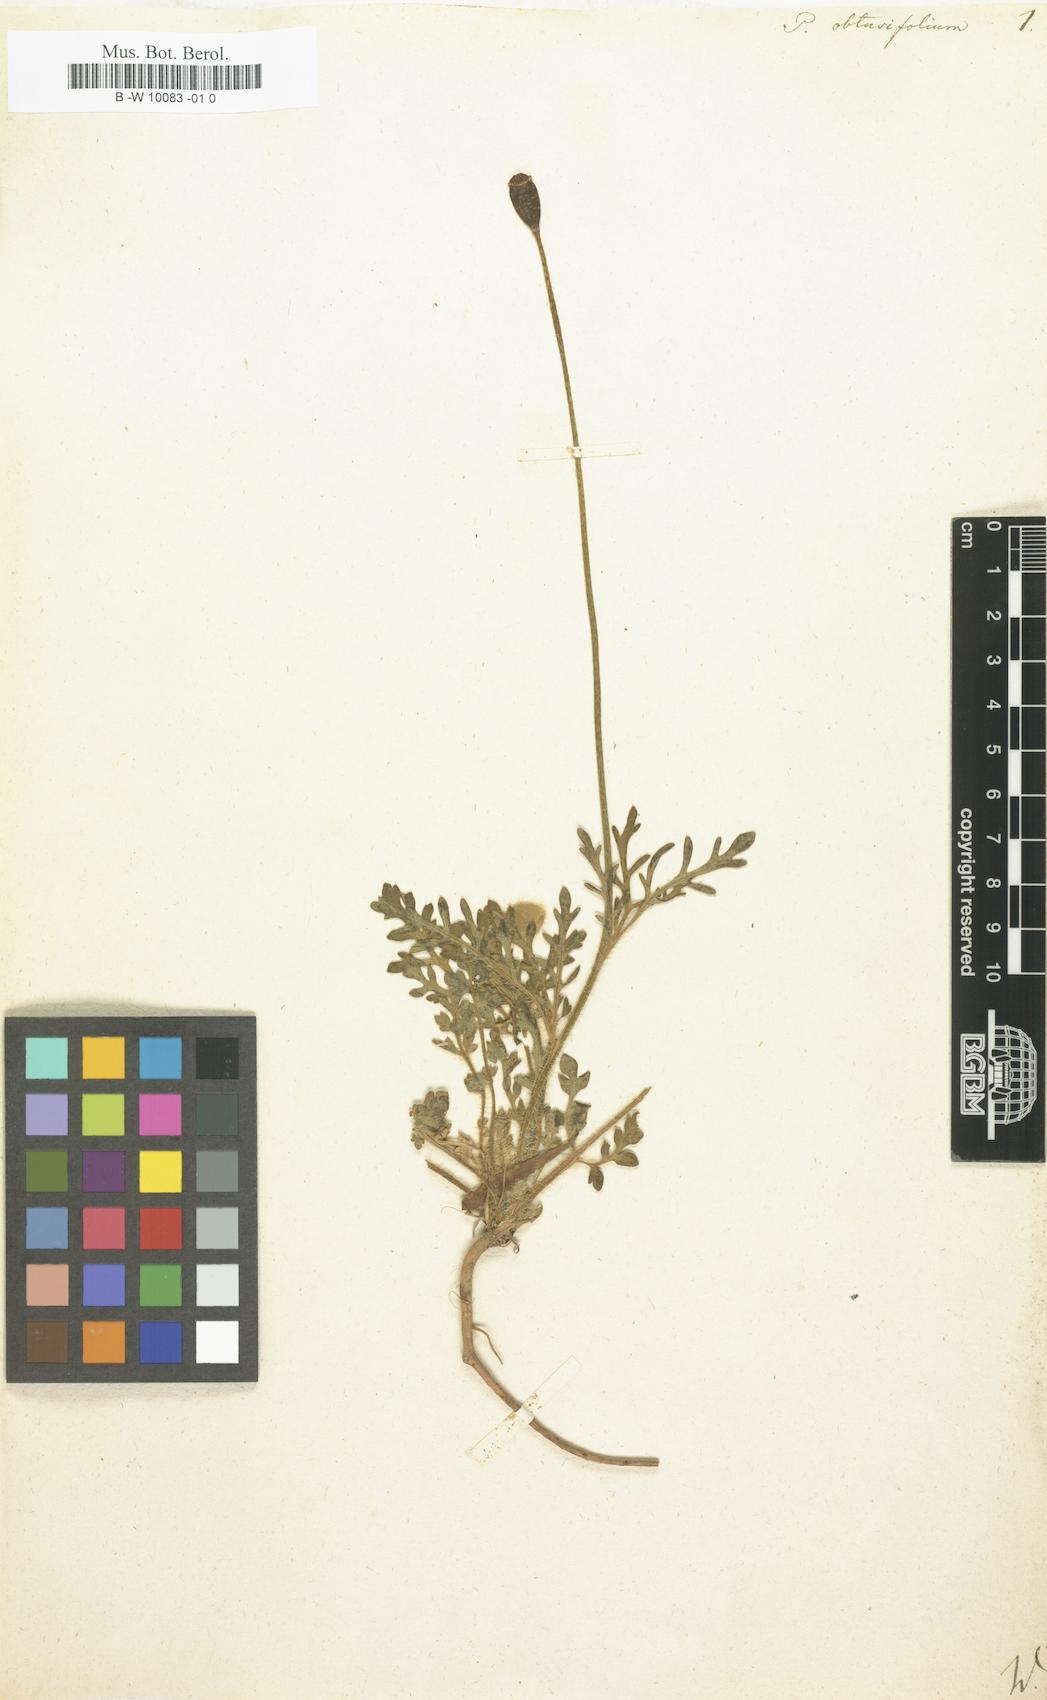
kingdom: Plantae
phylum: Tracheophyta
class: Magnoliopsida
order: Ranunculales
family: Papaveraceae
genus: Papaver
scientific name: Papaver dubium
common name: Long-headed poppy
